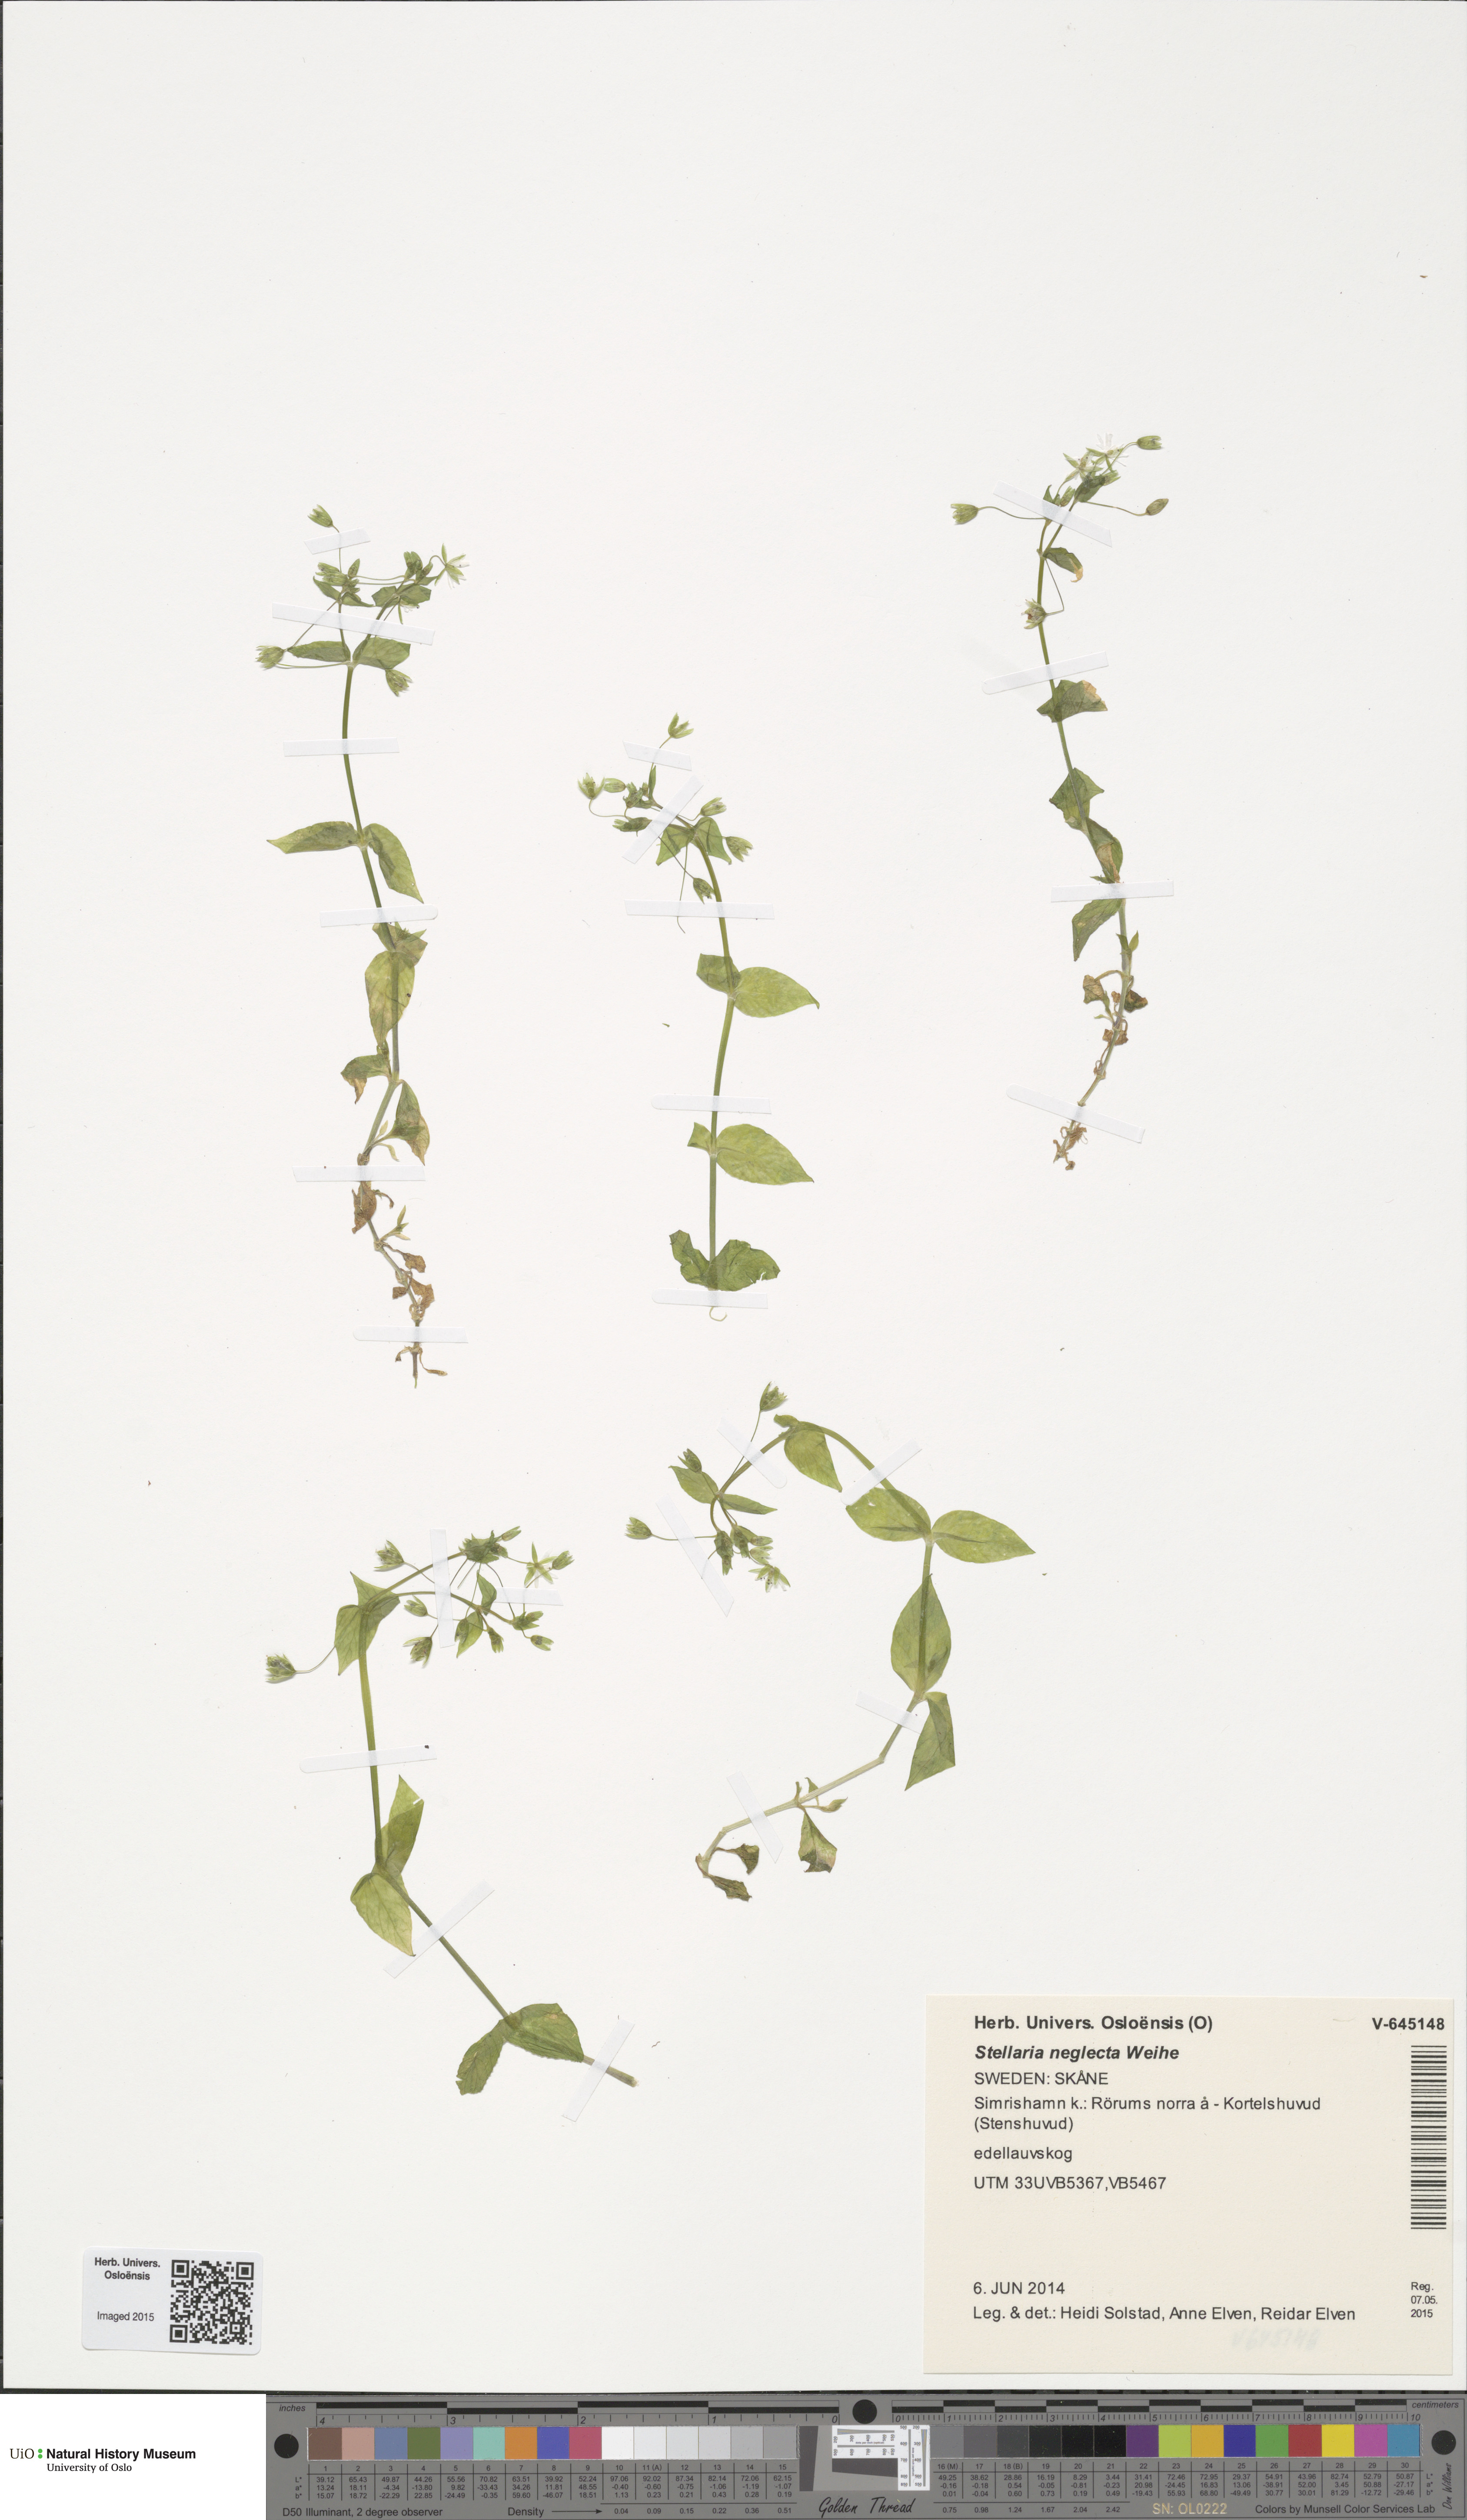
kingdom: Plantae
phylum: Tracheophyta
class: Magnoliopsida
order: Caryophyllales
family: Caryophyllaceae
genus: Stellaria
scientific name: Stellaria neglecta
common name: Greater chickweed
